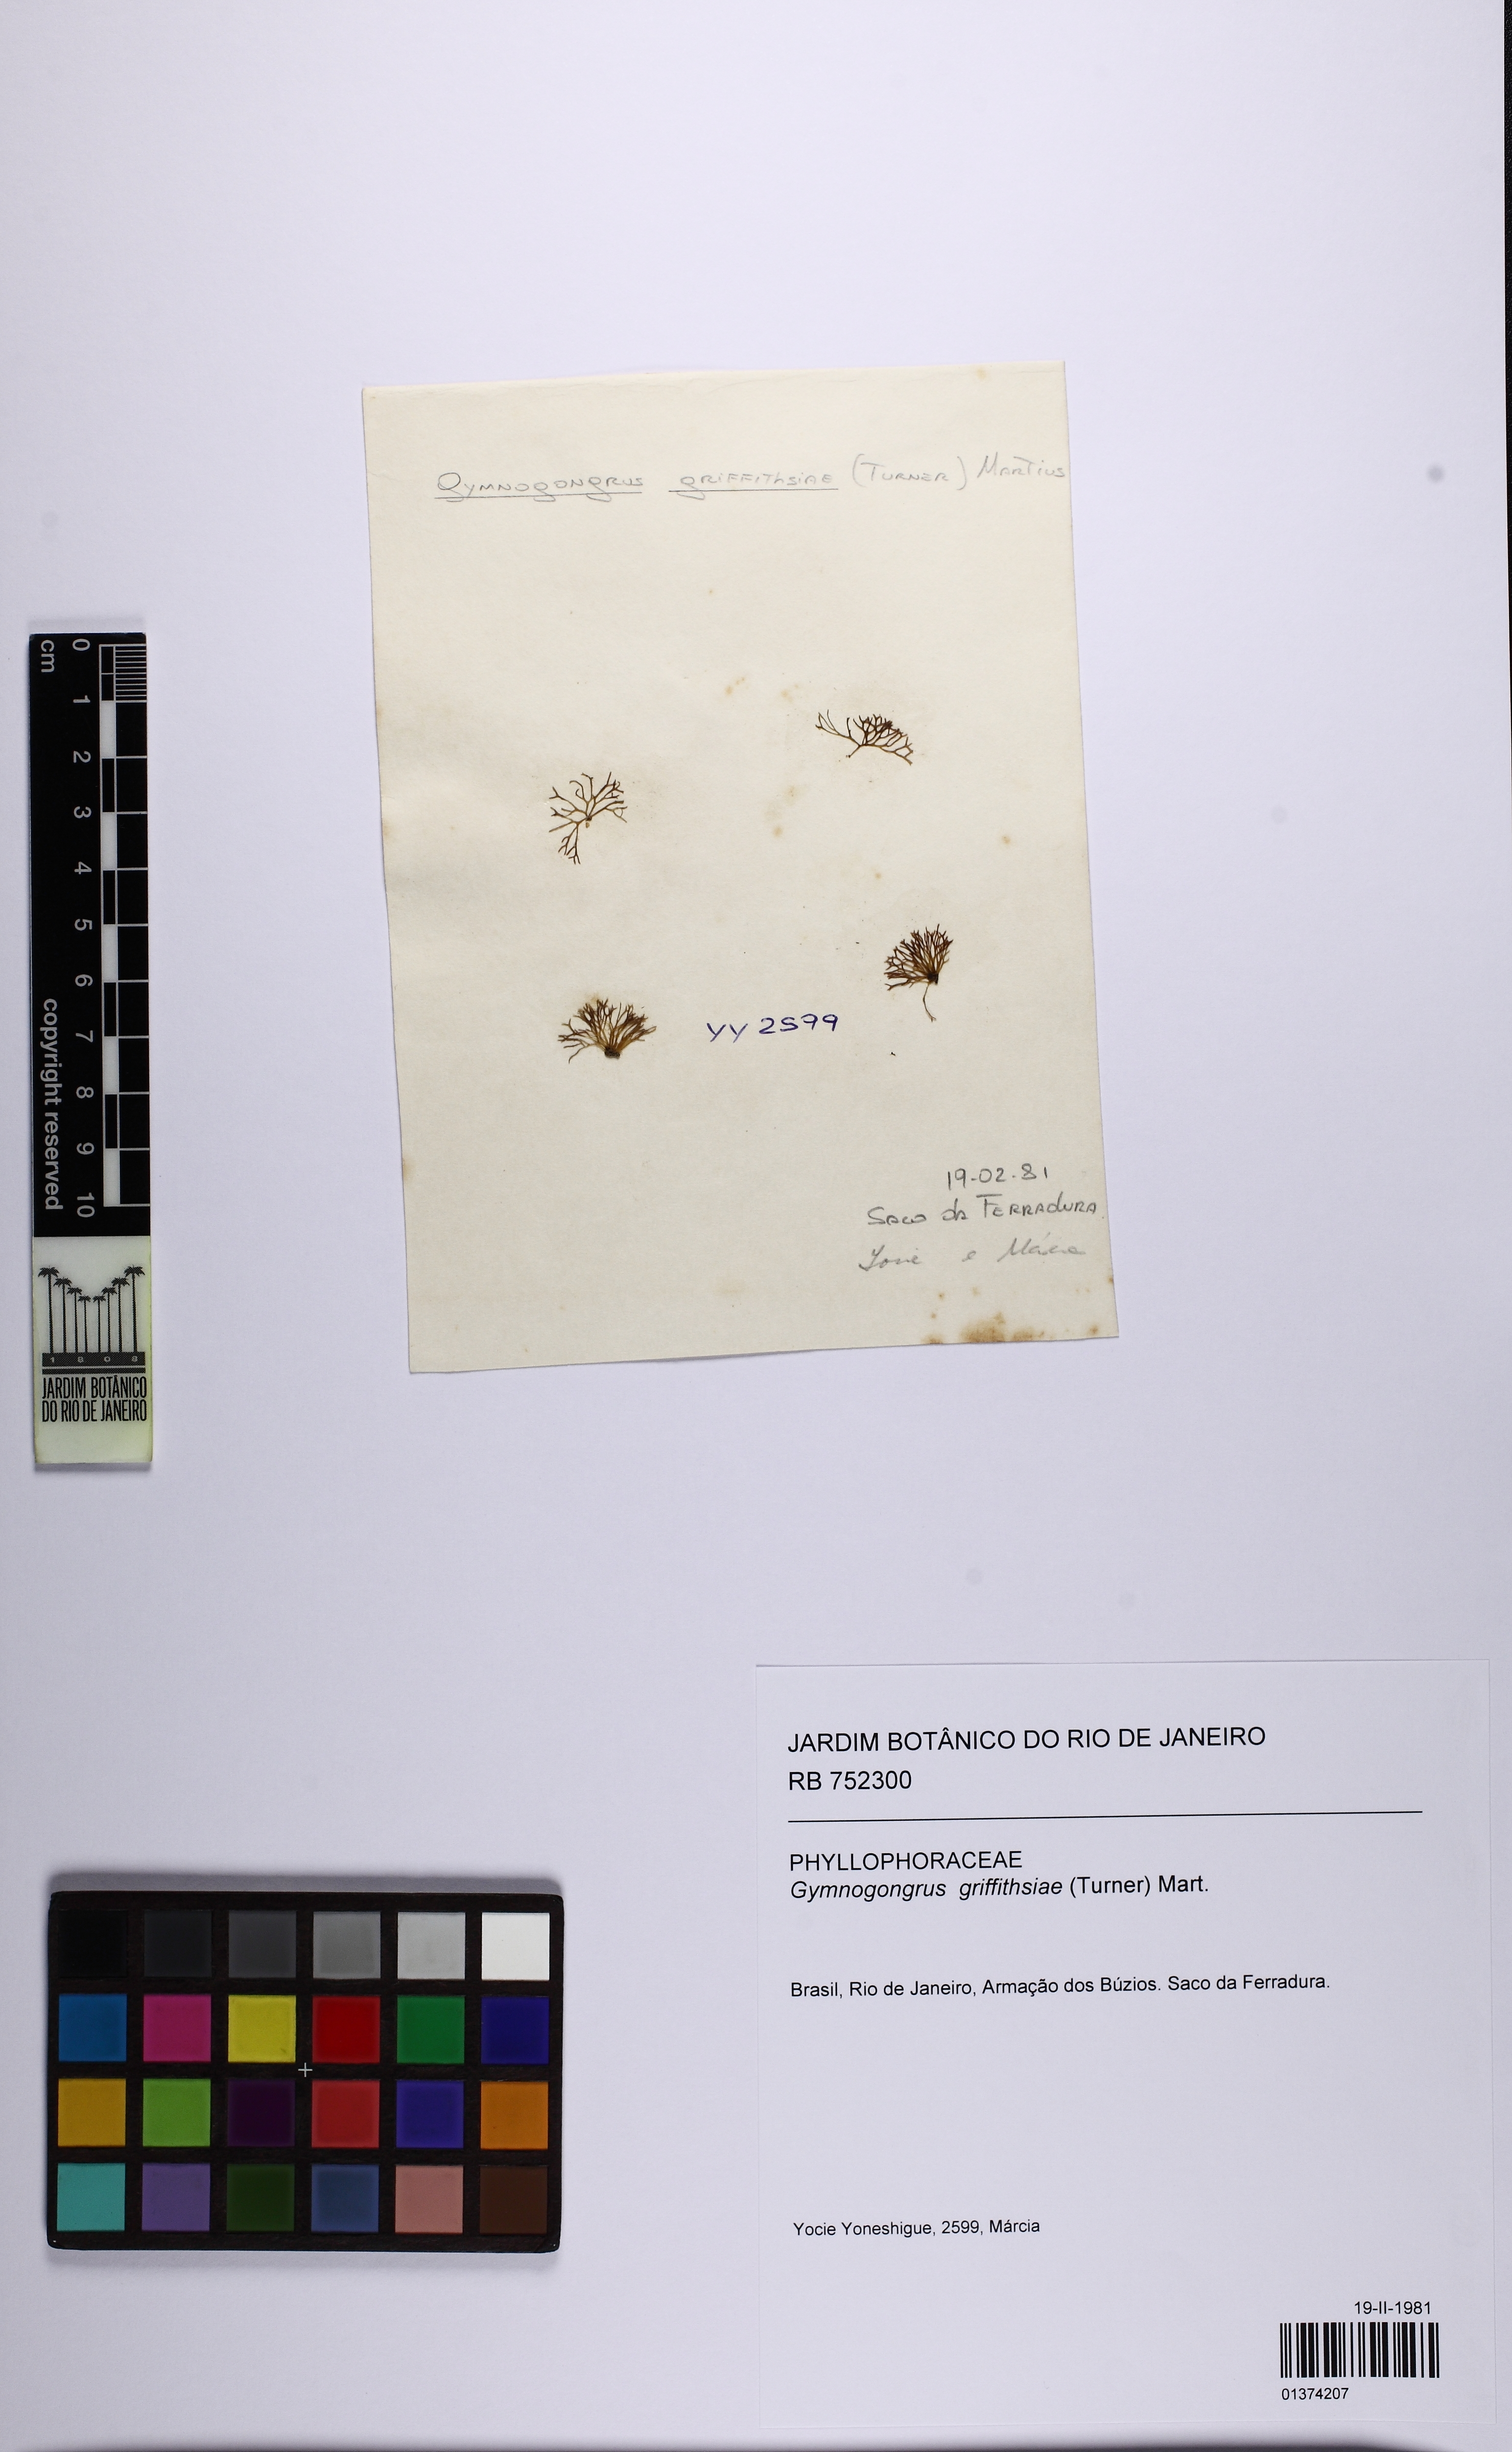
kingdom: Plantae
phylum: Rhodophyta
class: Florideophyceae
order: Gigartinales
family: Phyllophoraceae
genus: Gymnogongrus
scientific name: Gymnogongrus griffithsiae
